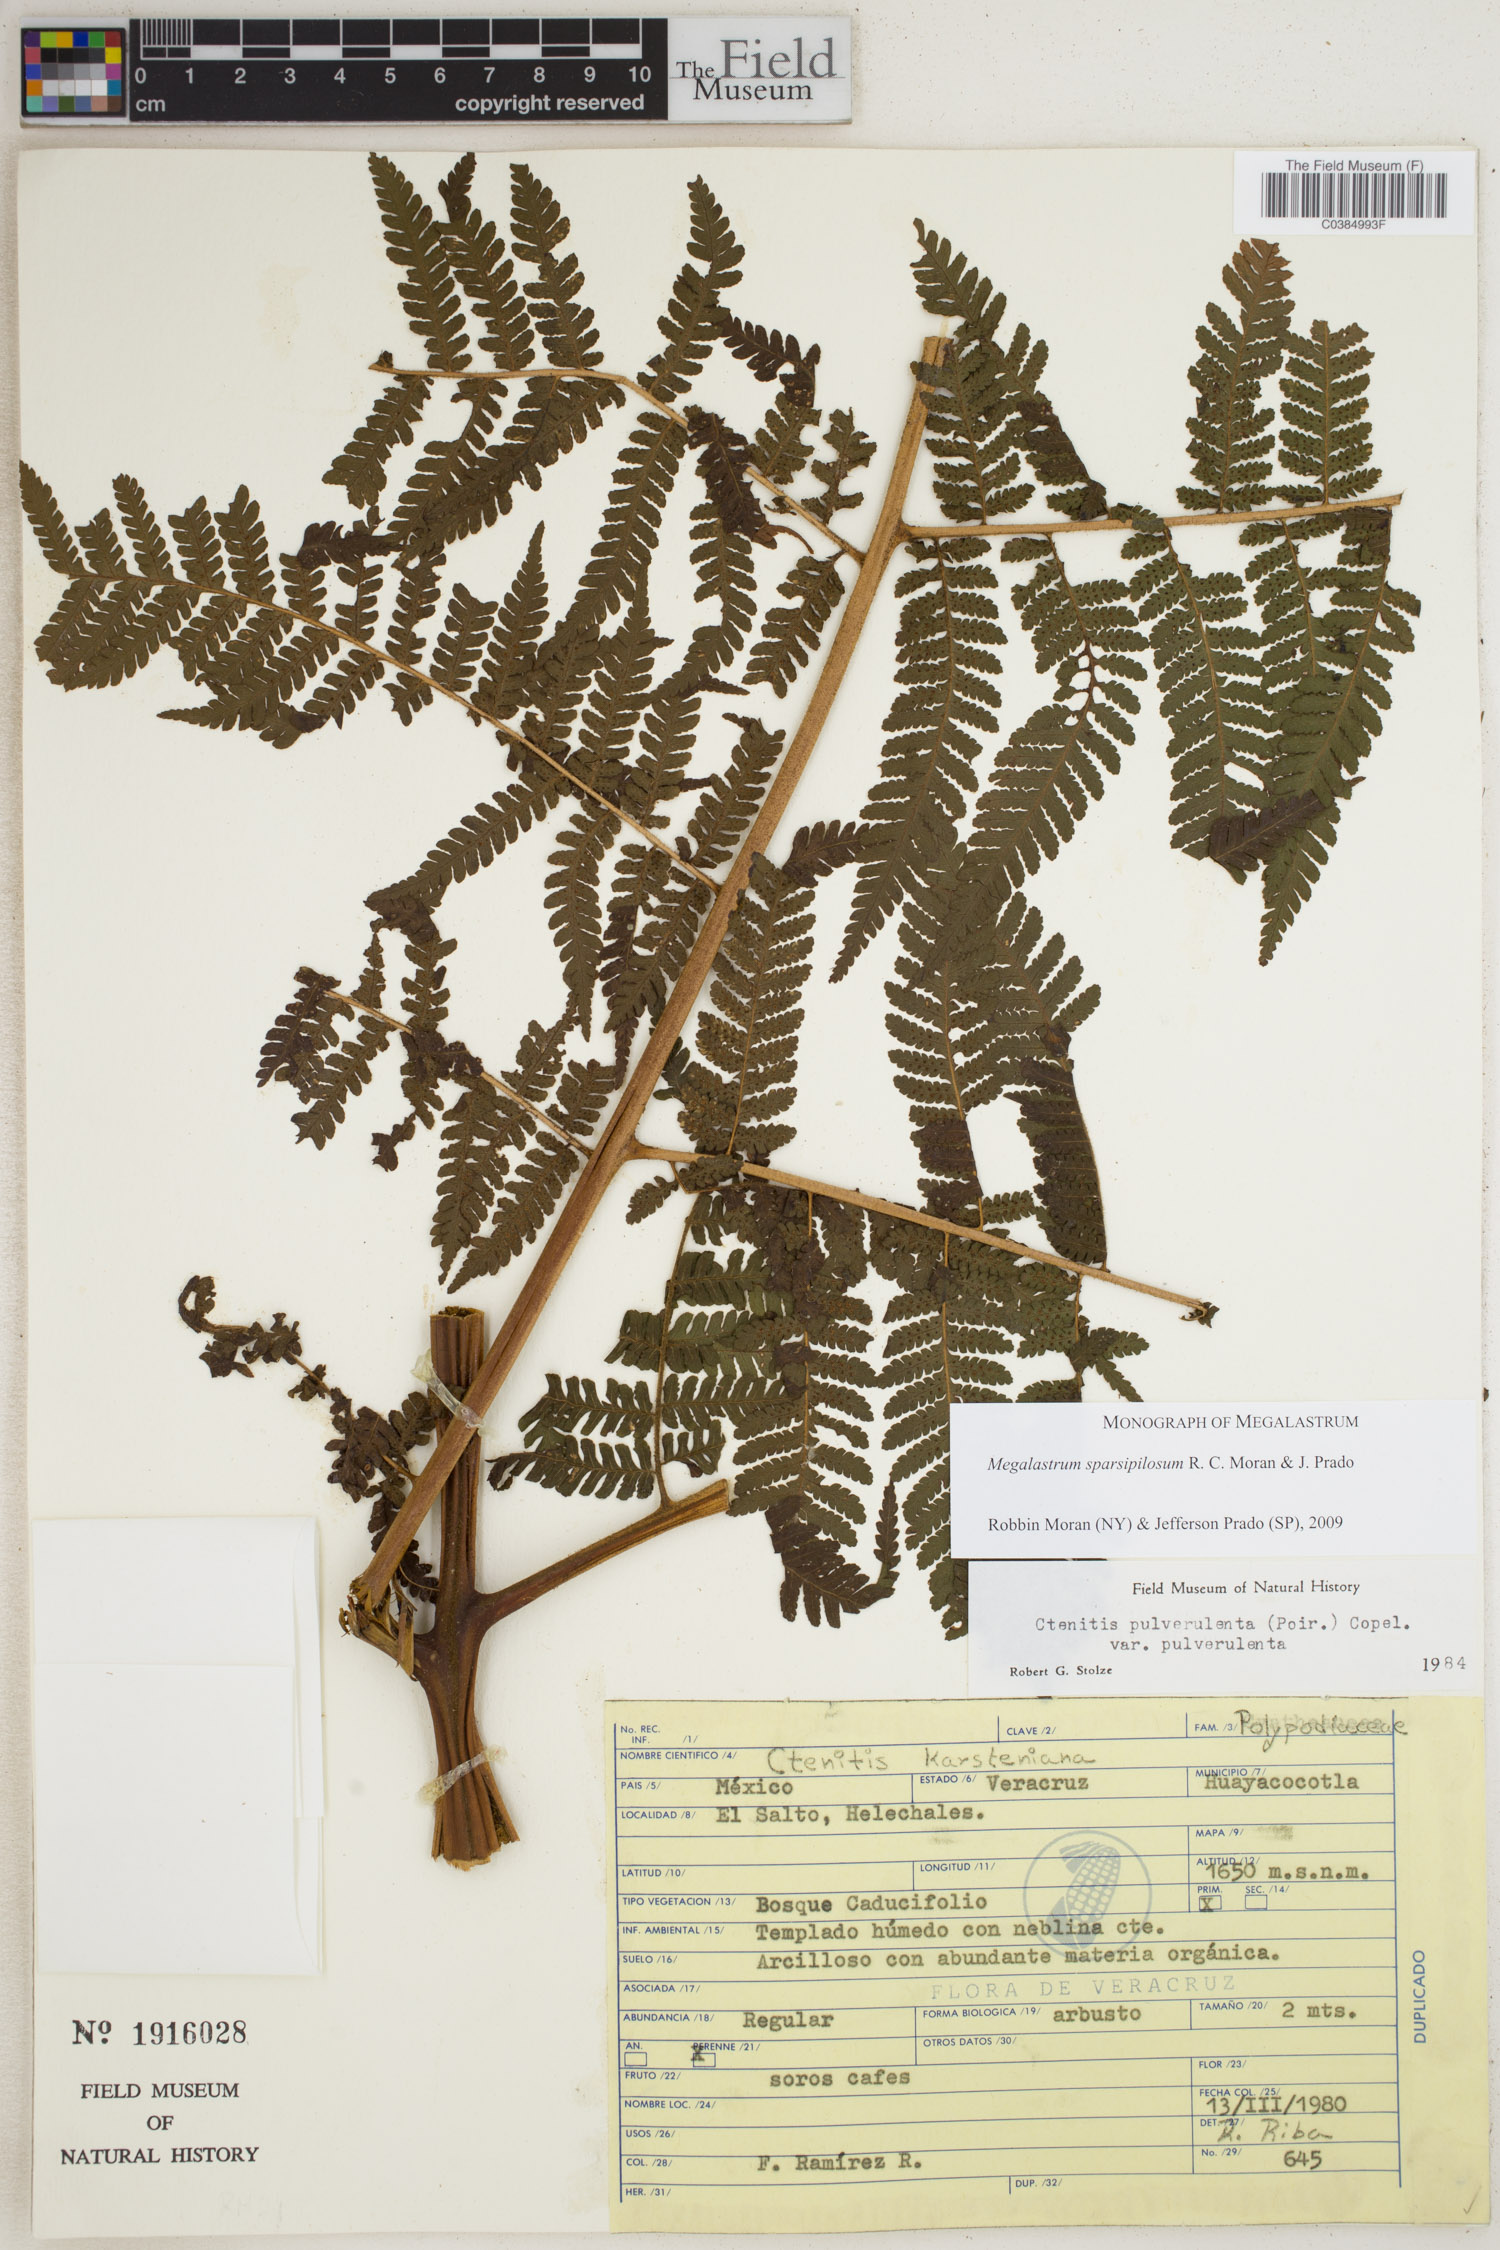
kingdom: Plantae
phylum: Tracheophyta
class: Polypodiopsida
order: Polypodiales
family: Dryopteridaceae
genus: Megalastrum
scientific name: Megalastrum sparsipilosum
